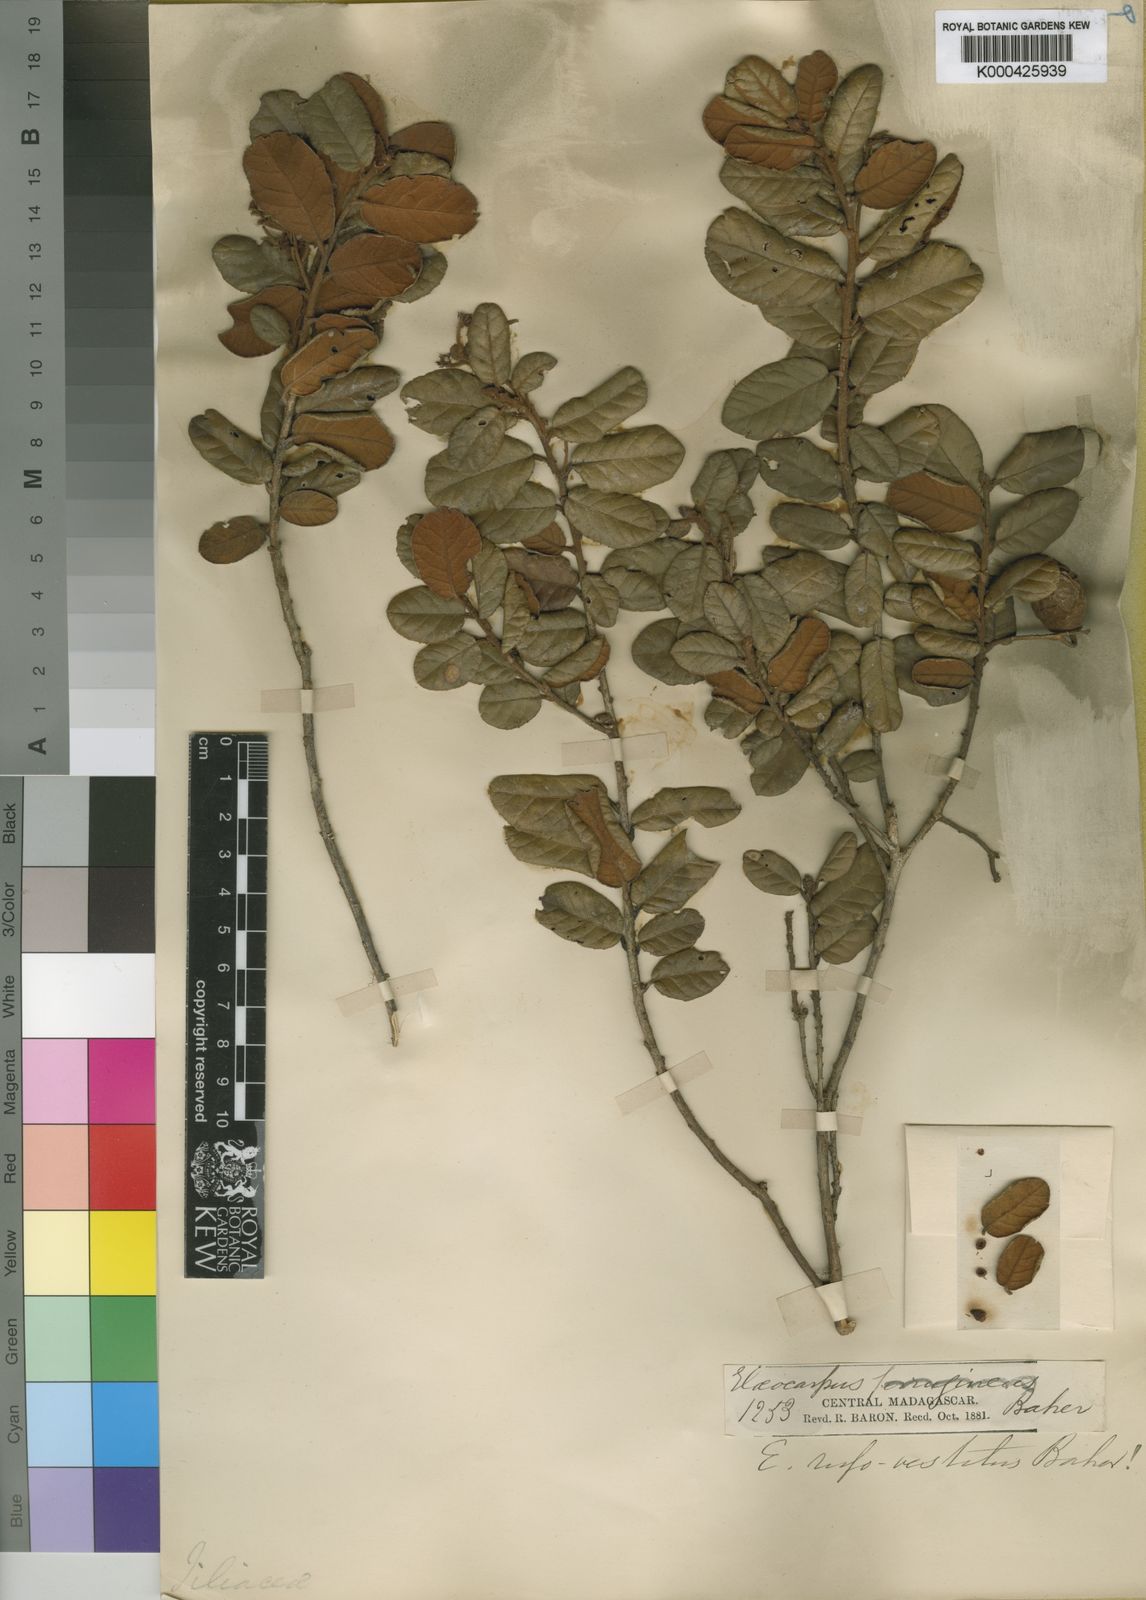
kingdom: Plantae
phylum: Tracheophyta
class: Magnoliopsida
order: Oxalidales
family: Elaeocarpaceae
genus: Elaeocarpus
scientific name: Elaeocarpus rufovestitus
